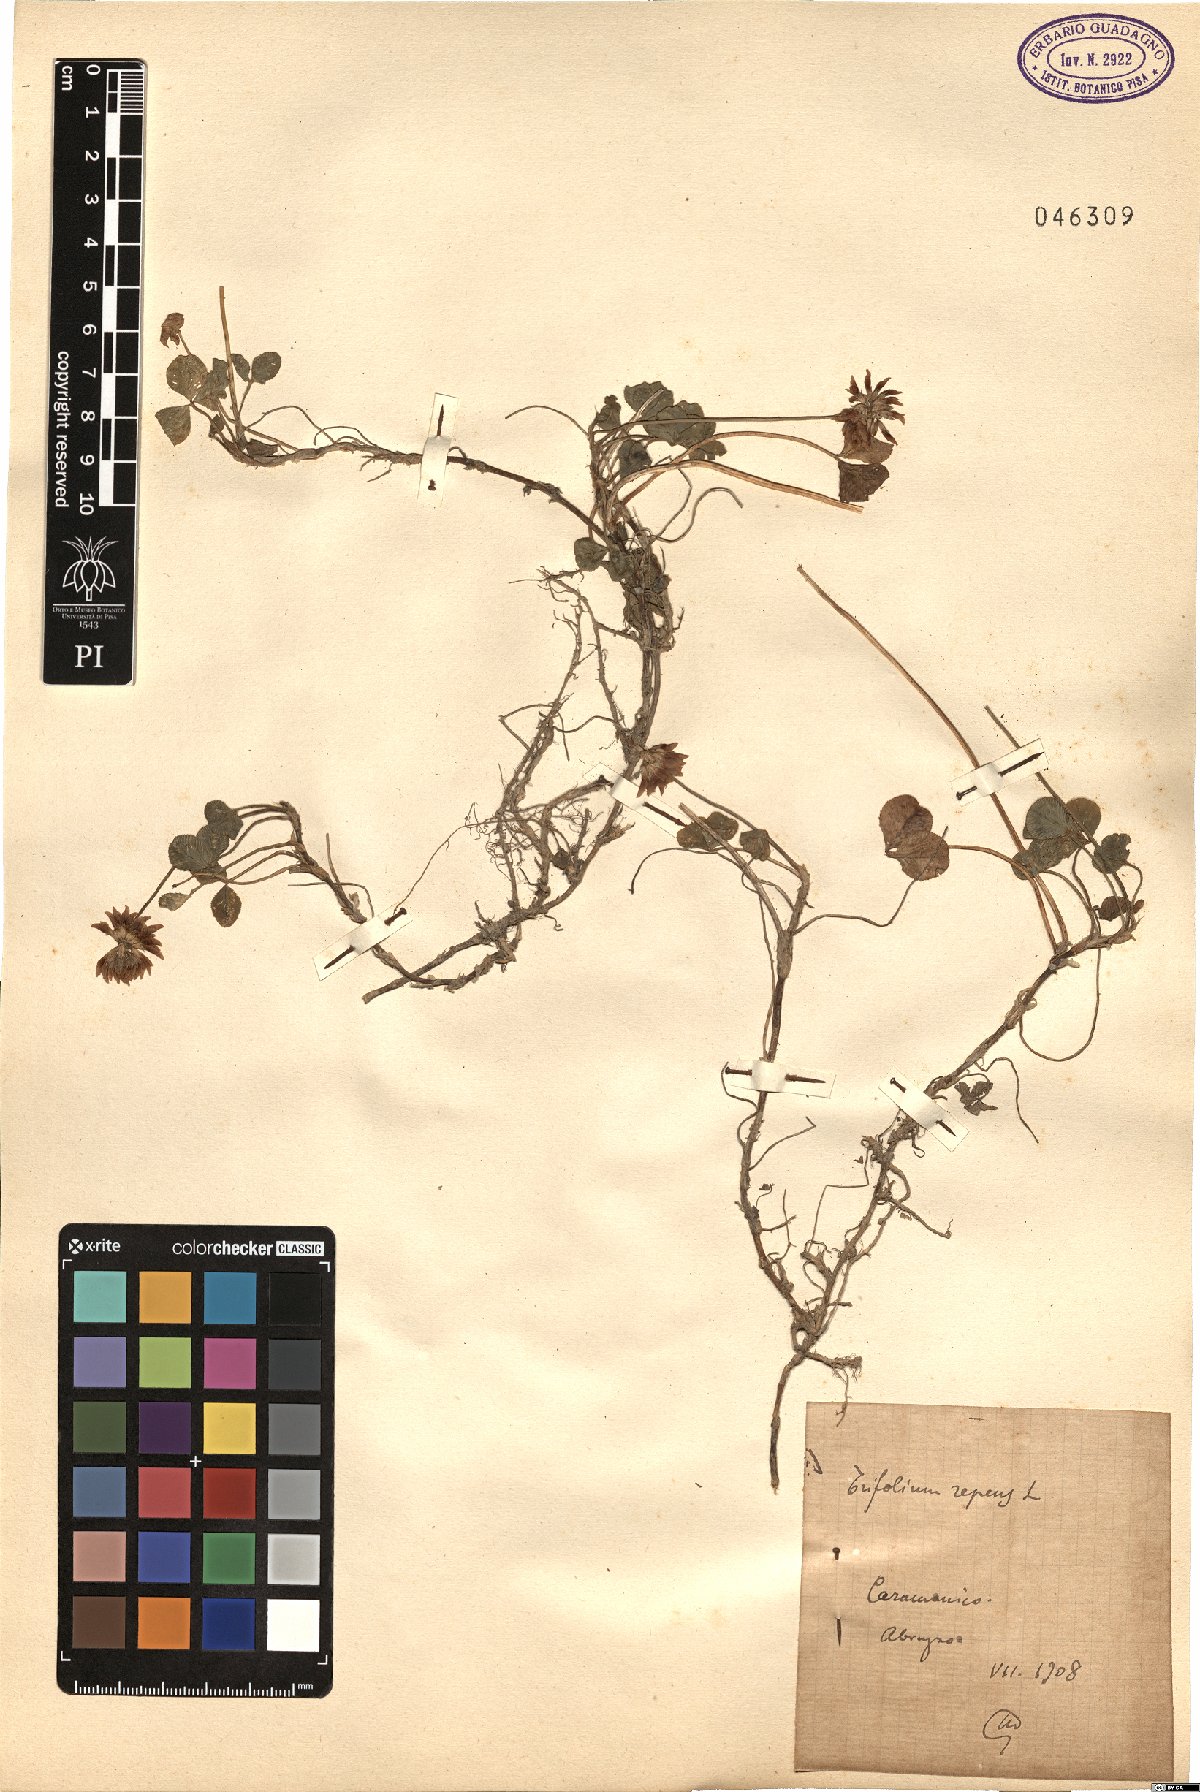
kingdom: Plantae
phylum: Tracheophyta
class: Magnoliopsida
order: Fabales
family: Fabaceae
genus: Trifolium
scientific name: Trifolium repens
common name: White clover
